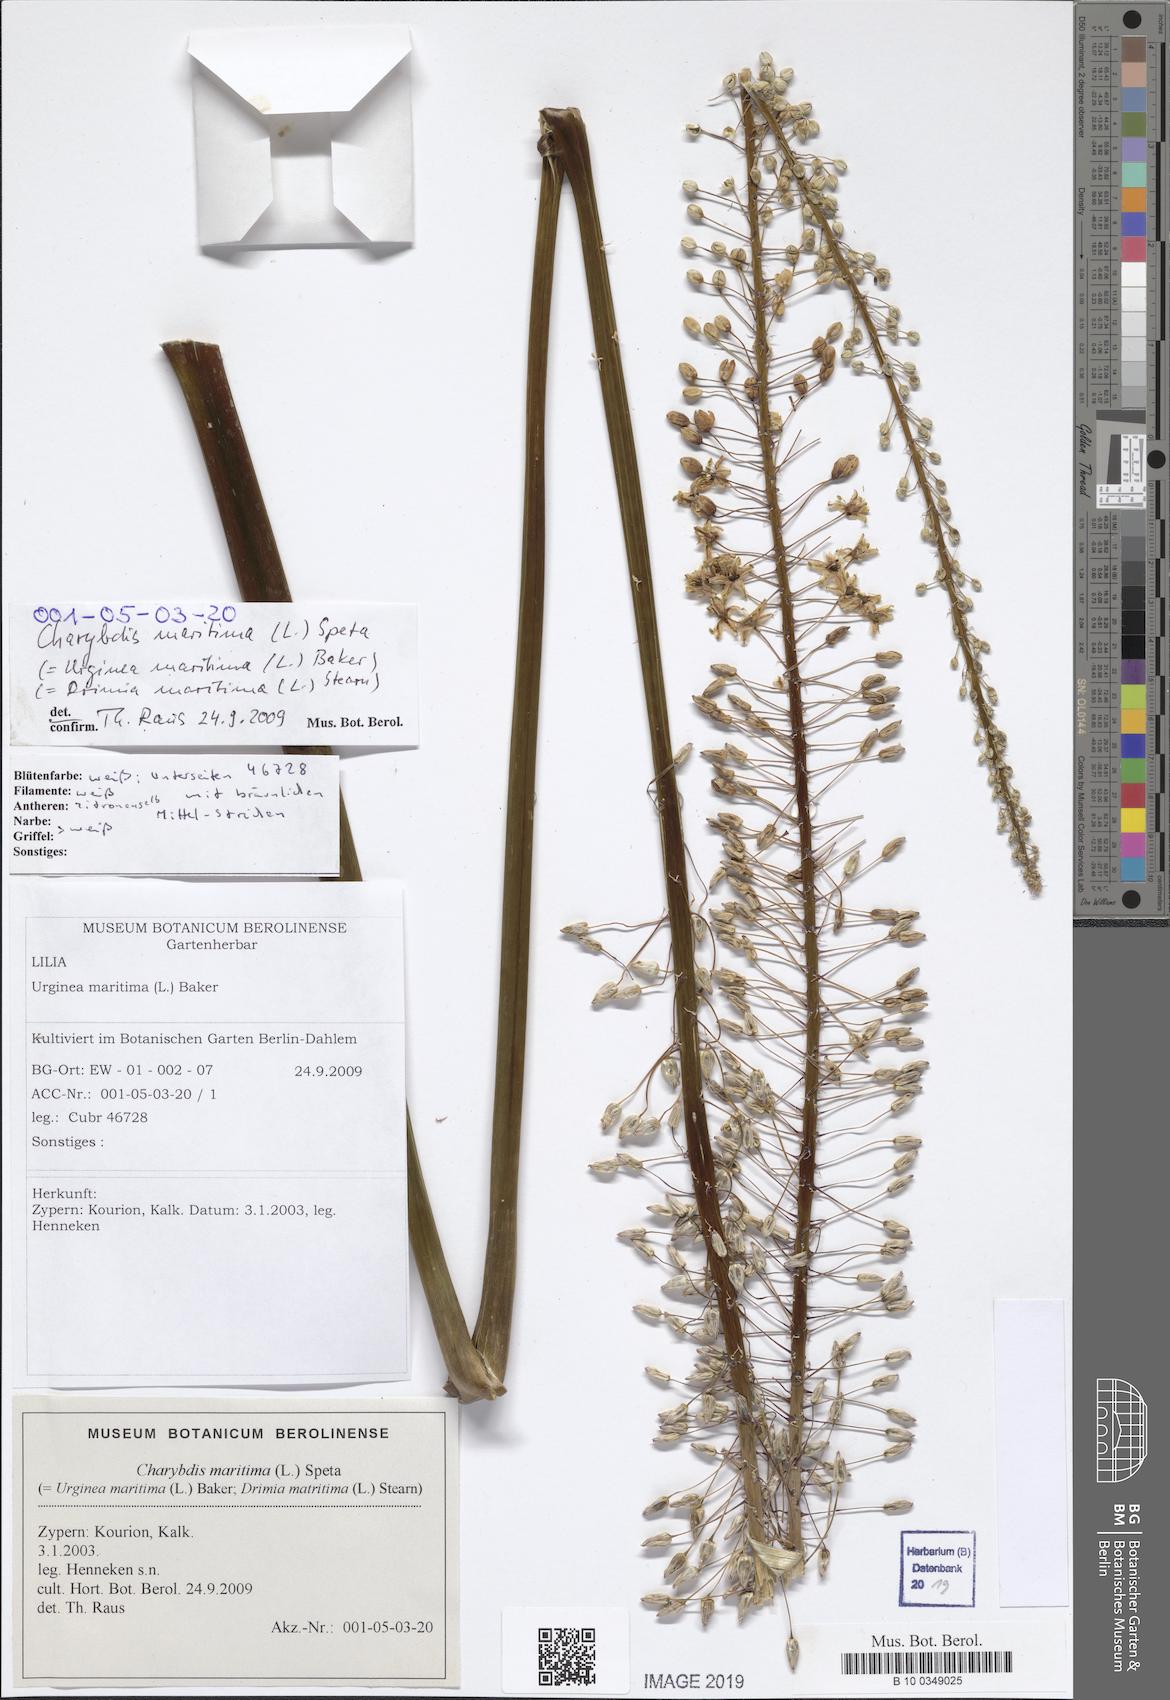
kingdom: Plantae
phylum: Tracheophyta
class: Liliopsida
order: Asparagales
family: Asparagaceae
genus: Drimia
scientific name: Drimia maritima
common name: Maritime squill
